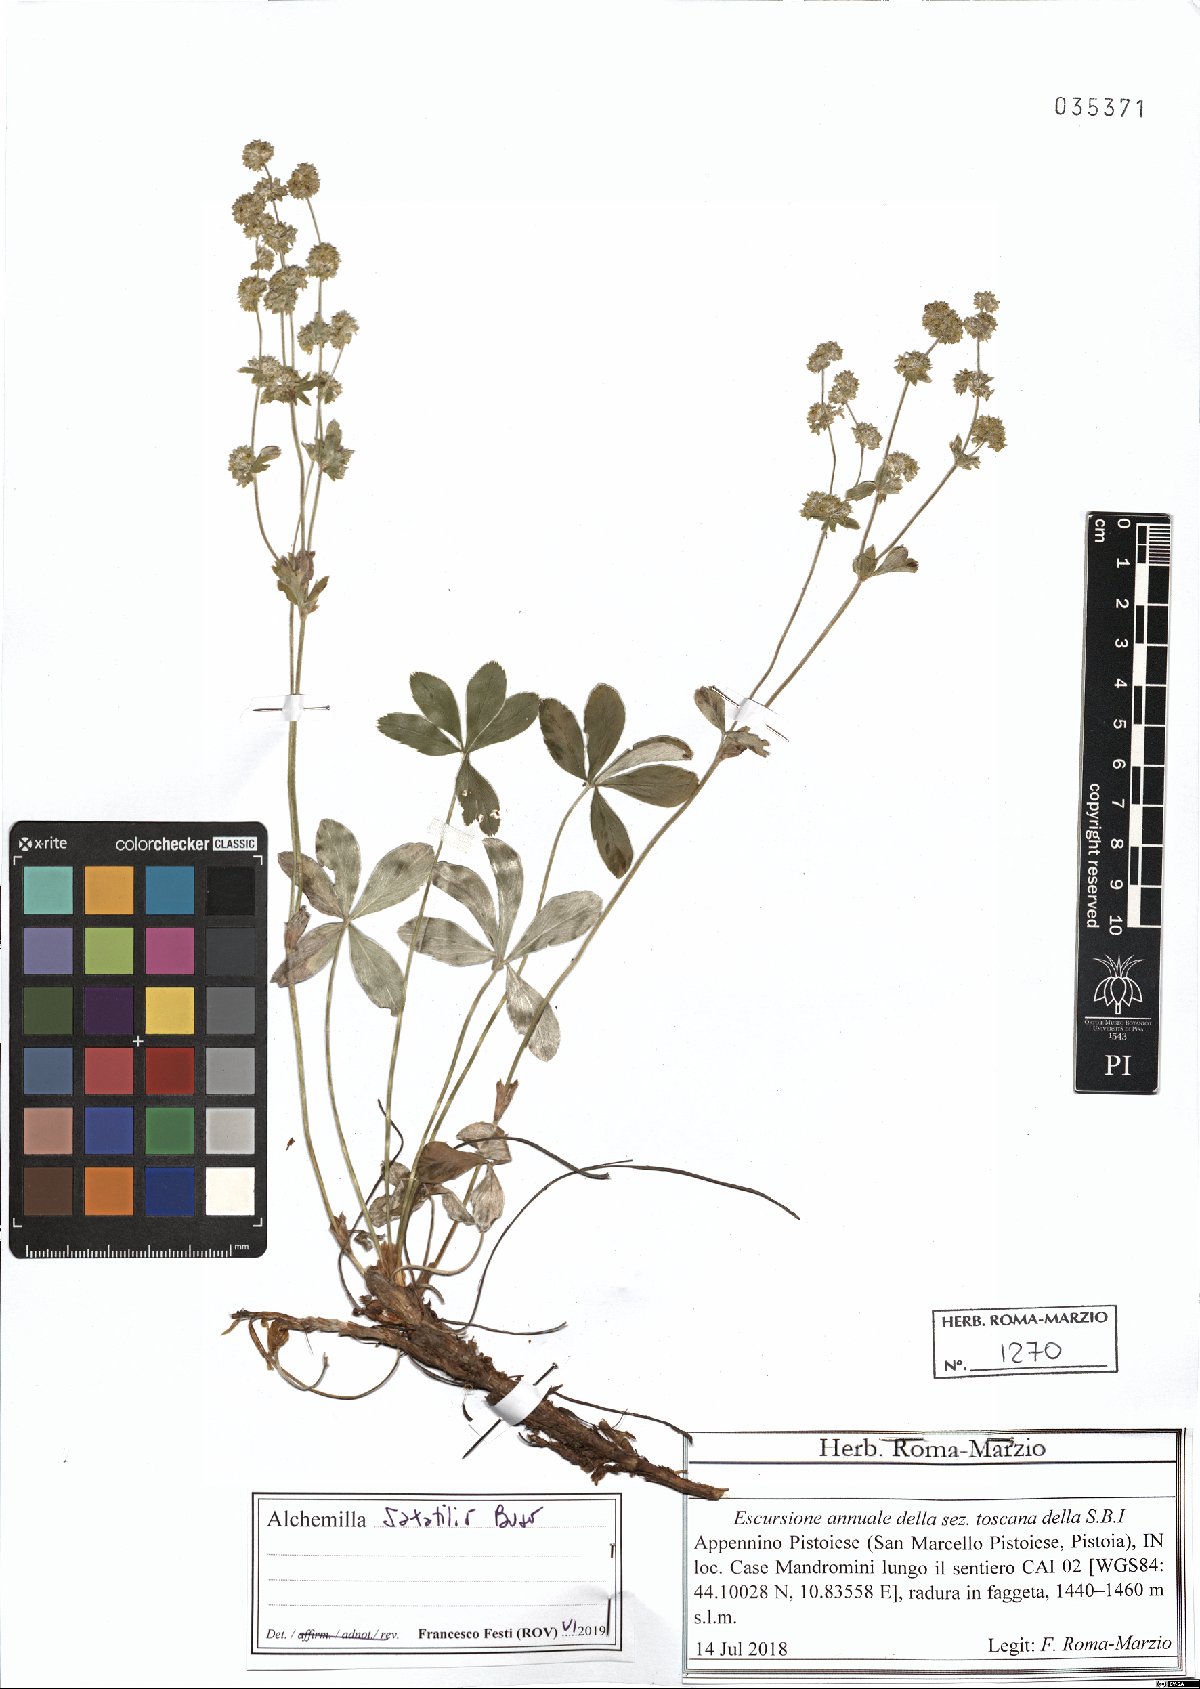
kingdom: Plantae
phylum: Tracheophyta
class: Magnoliopsida
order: Rosales
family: Rosaceae
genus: Alchemilla
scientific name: Alchemilla saxatilis
